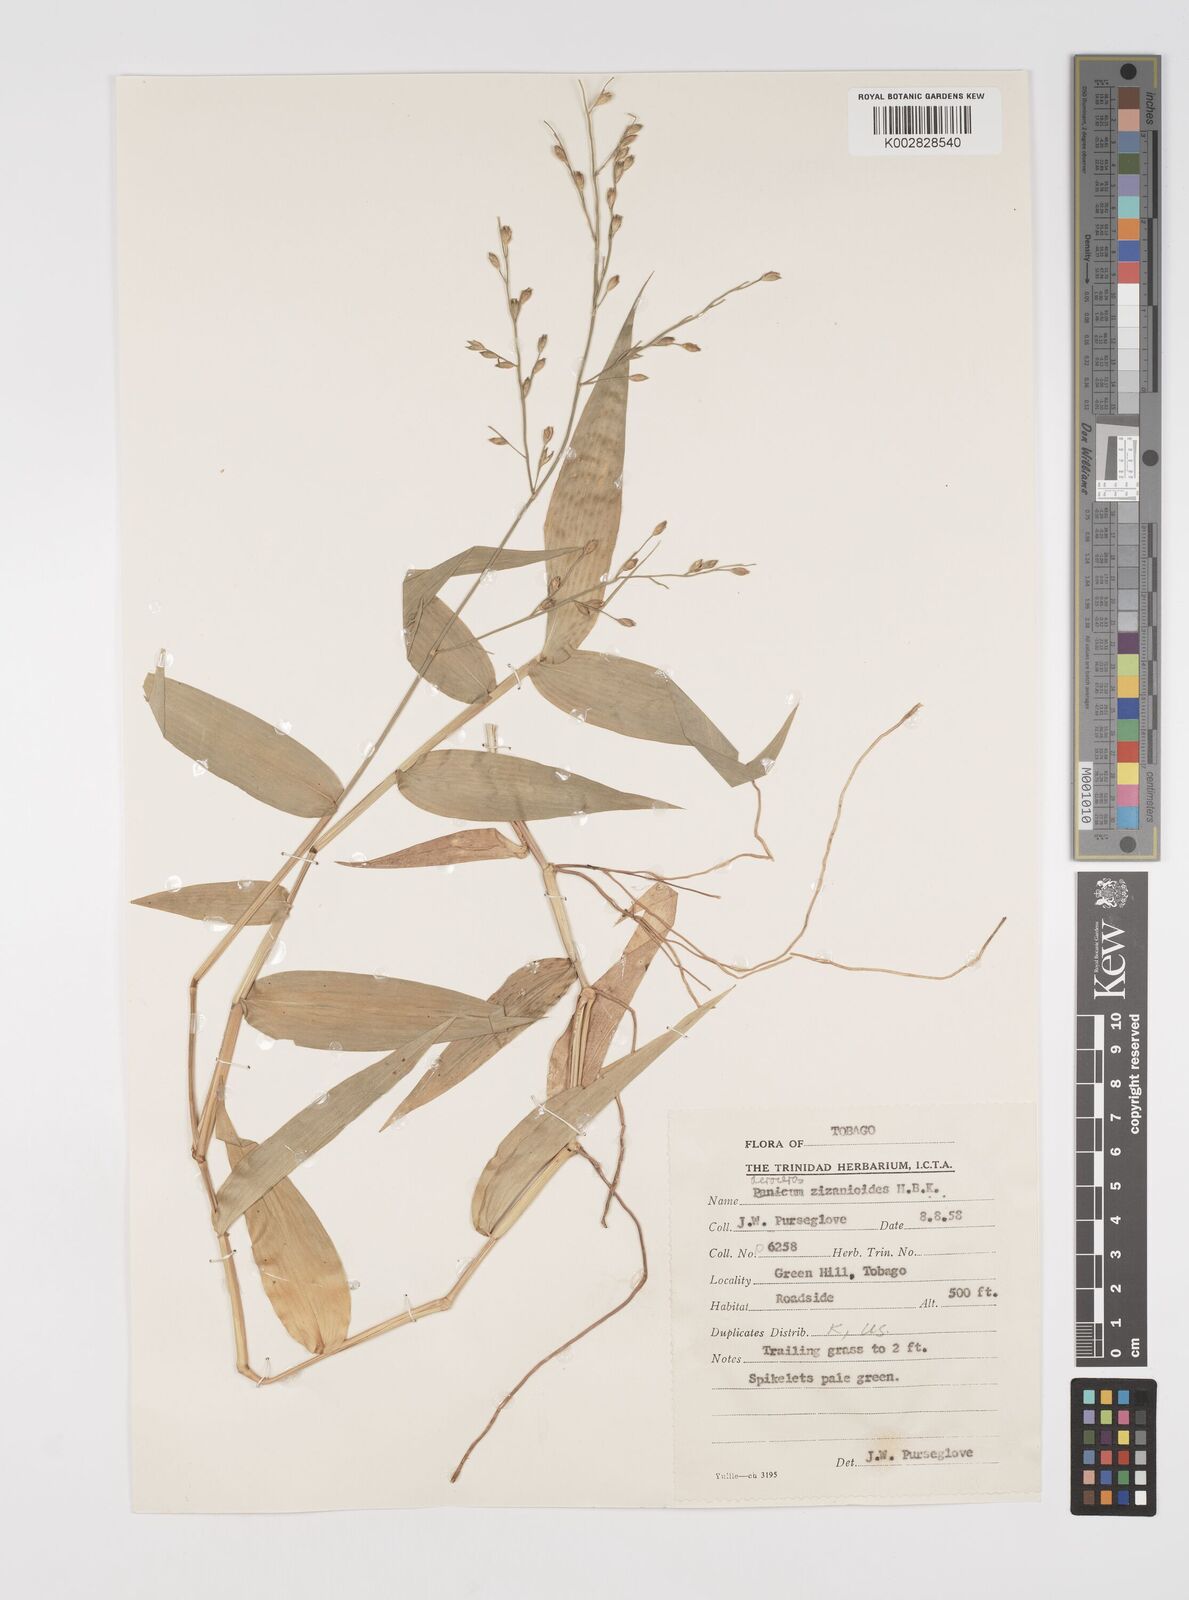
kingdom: Plantae
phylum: Tracheophyta
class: Liliopsida
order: Poales
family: Poaceae
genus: Acroceras
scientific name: Acroceras zizanioides
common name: Oat grass
